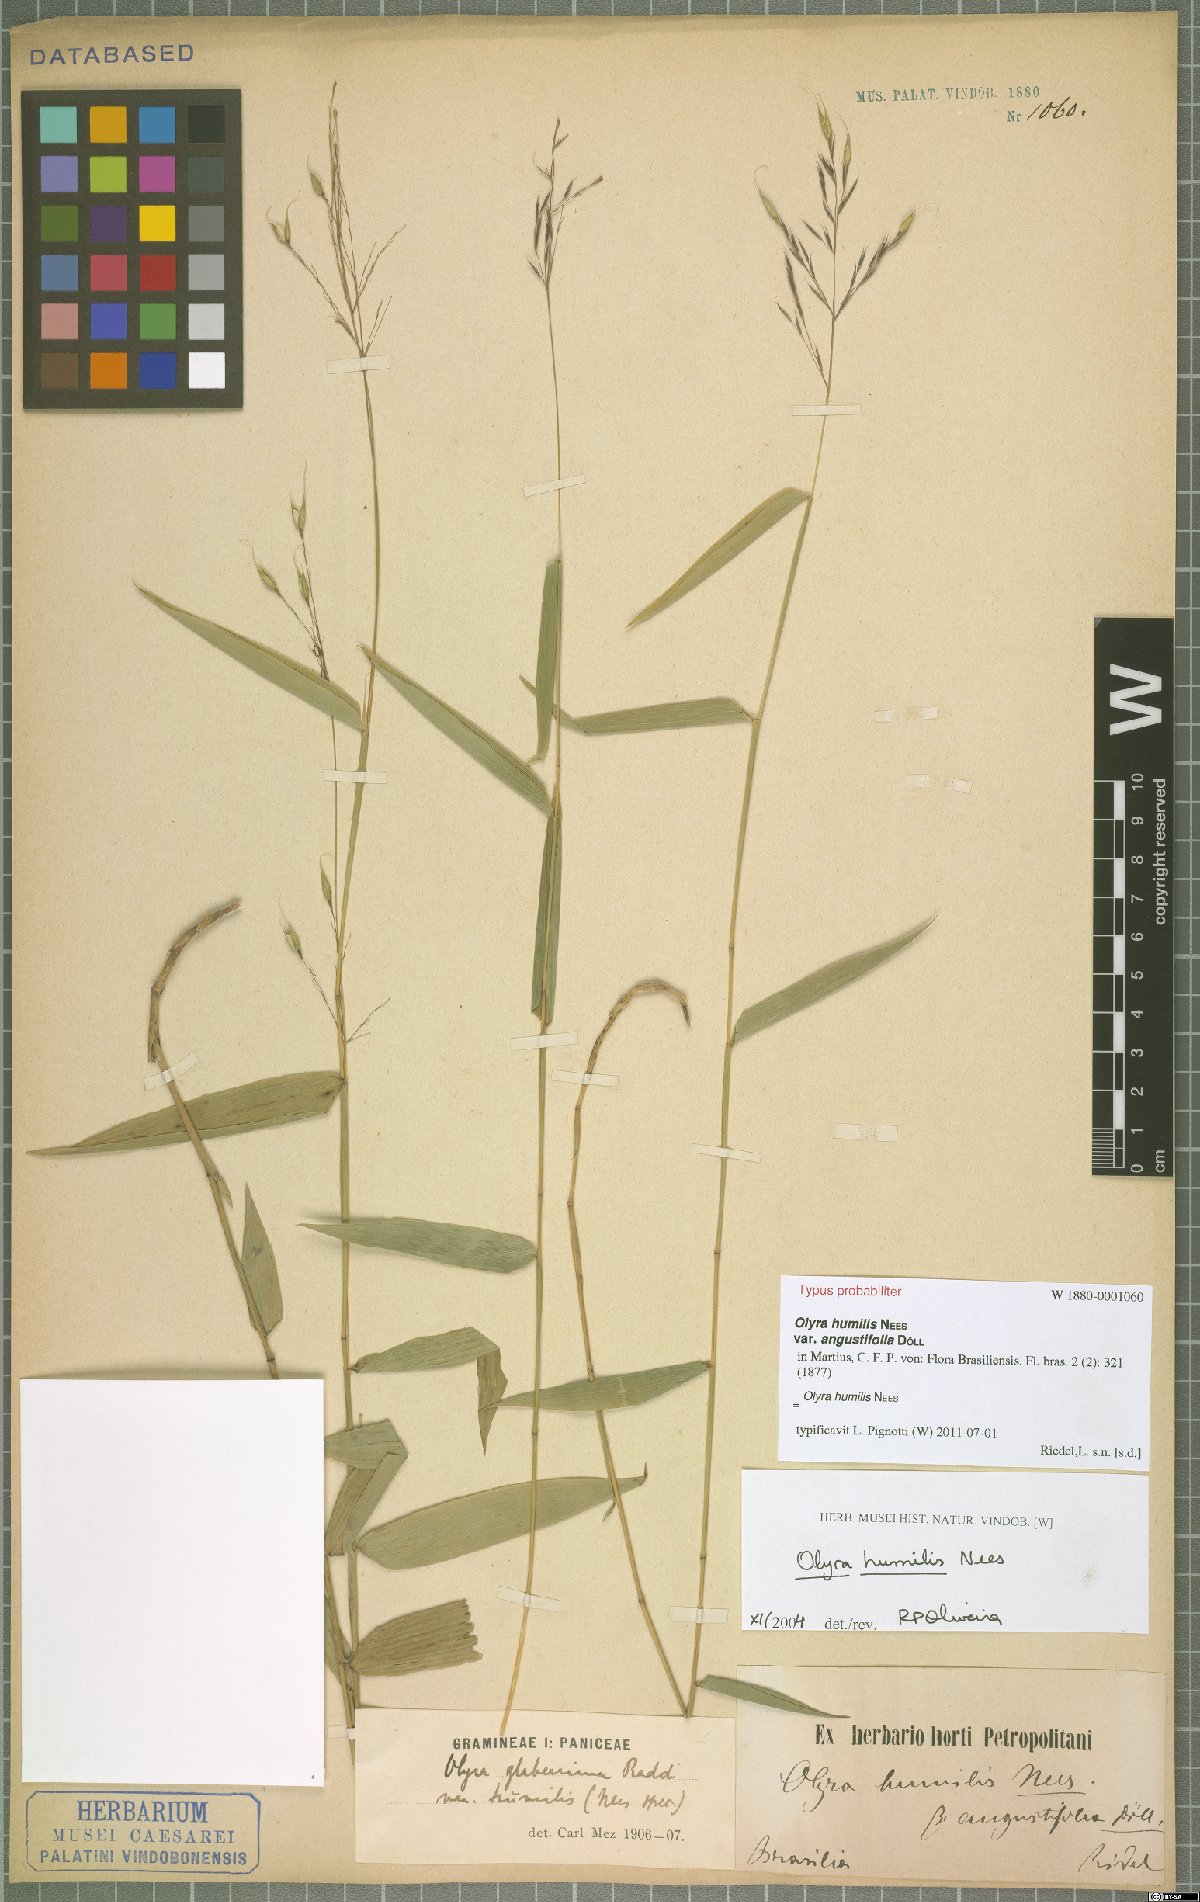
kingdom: Plantae
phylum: Tracheophyta
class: Liliopsida
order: Poales
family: Poaceae
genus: Olyra
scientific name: Olyra humilis
